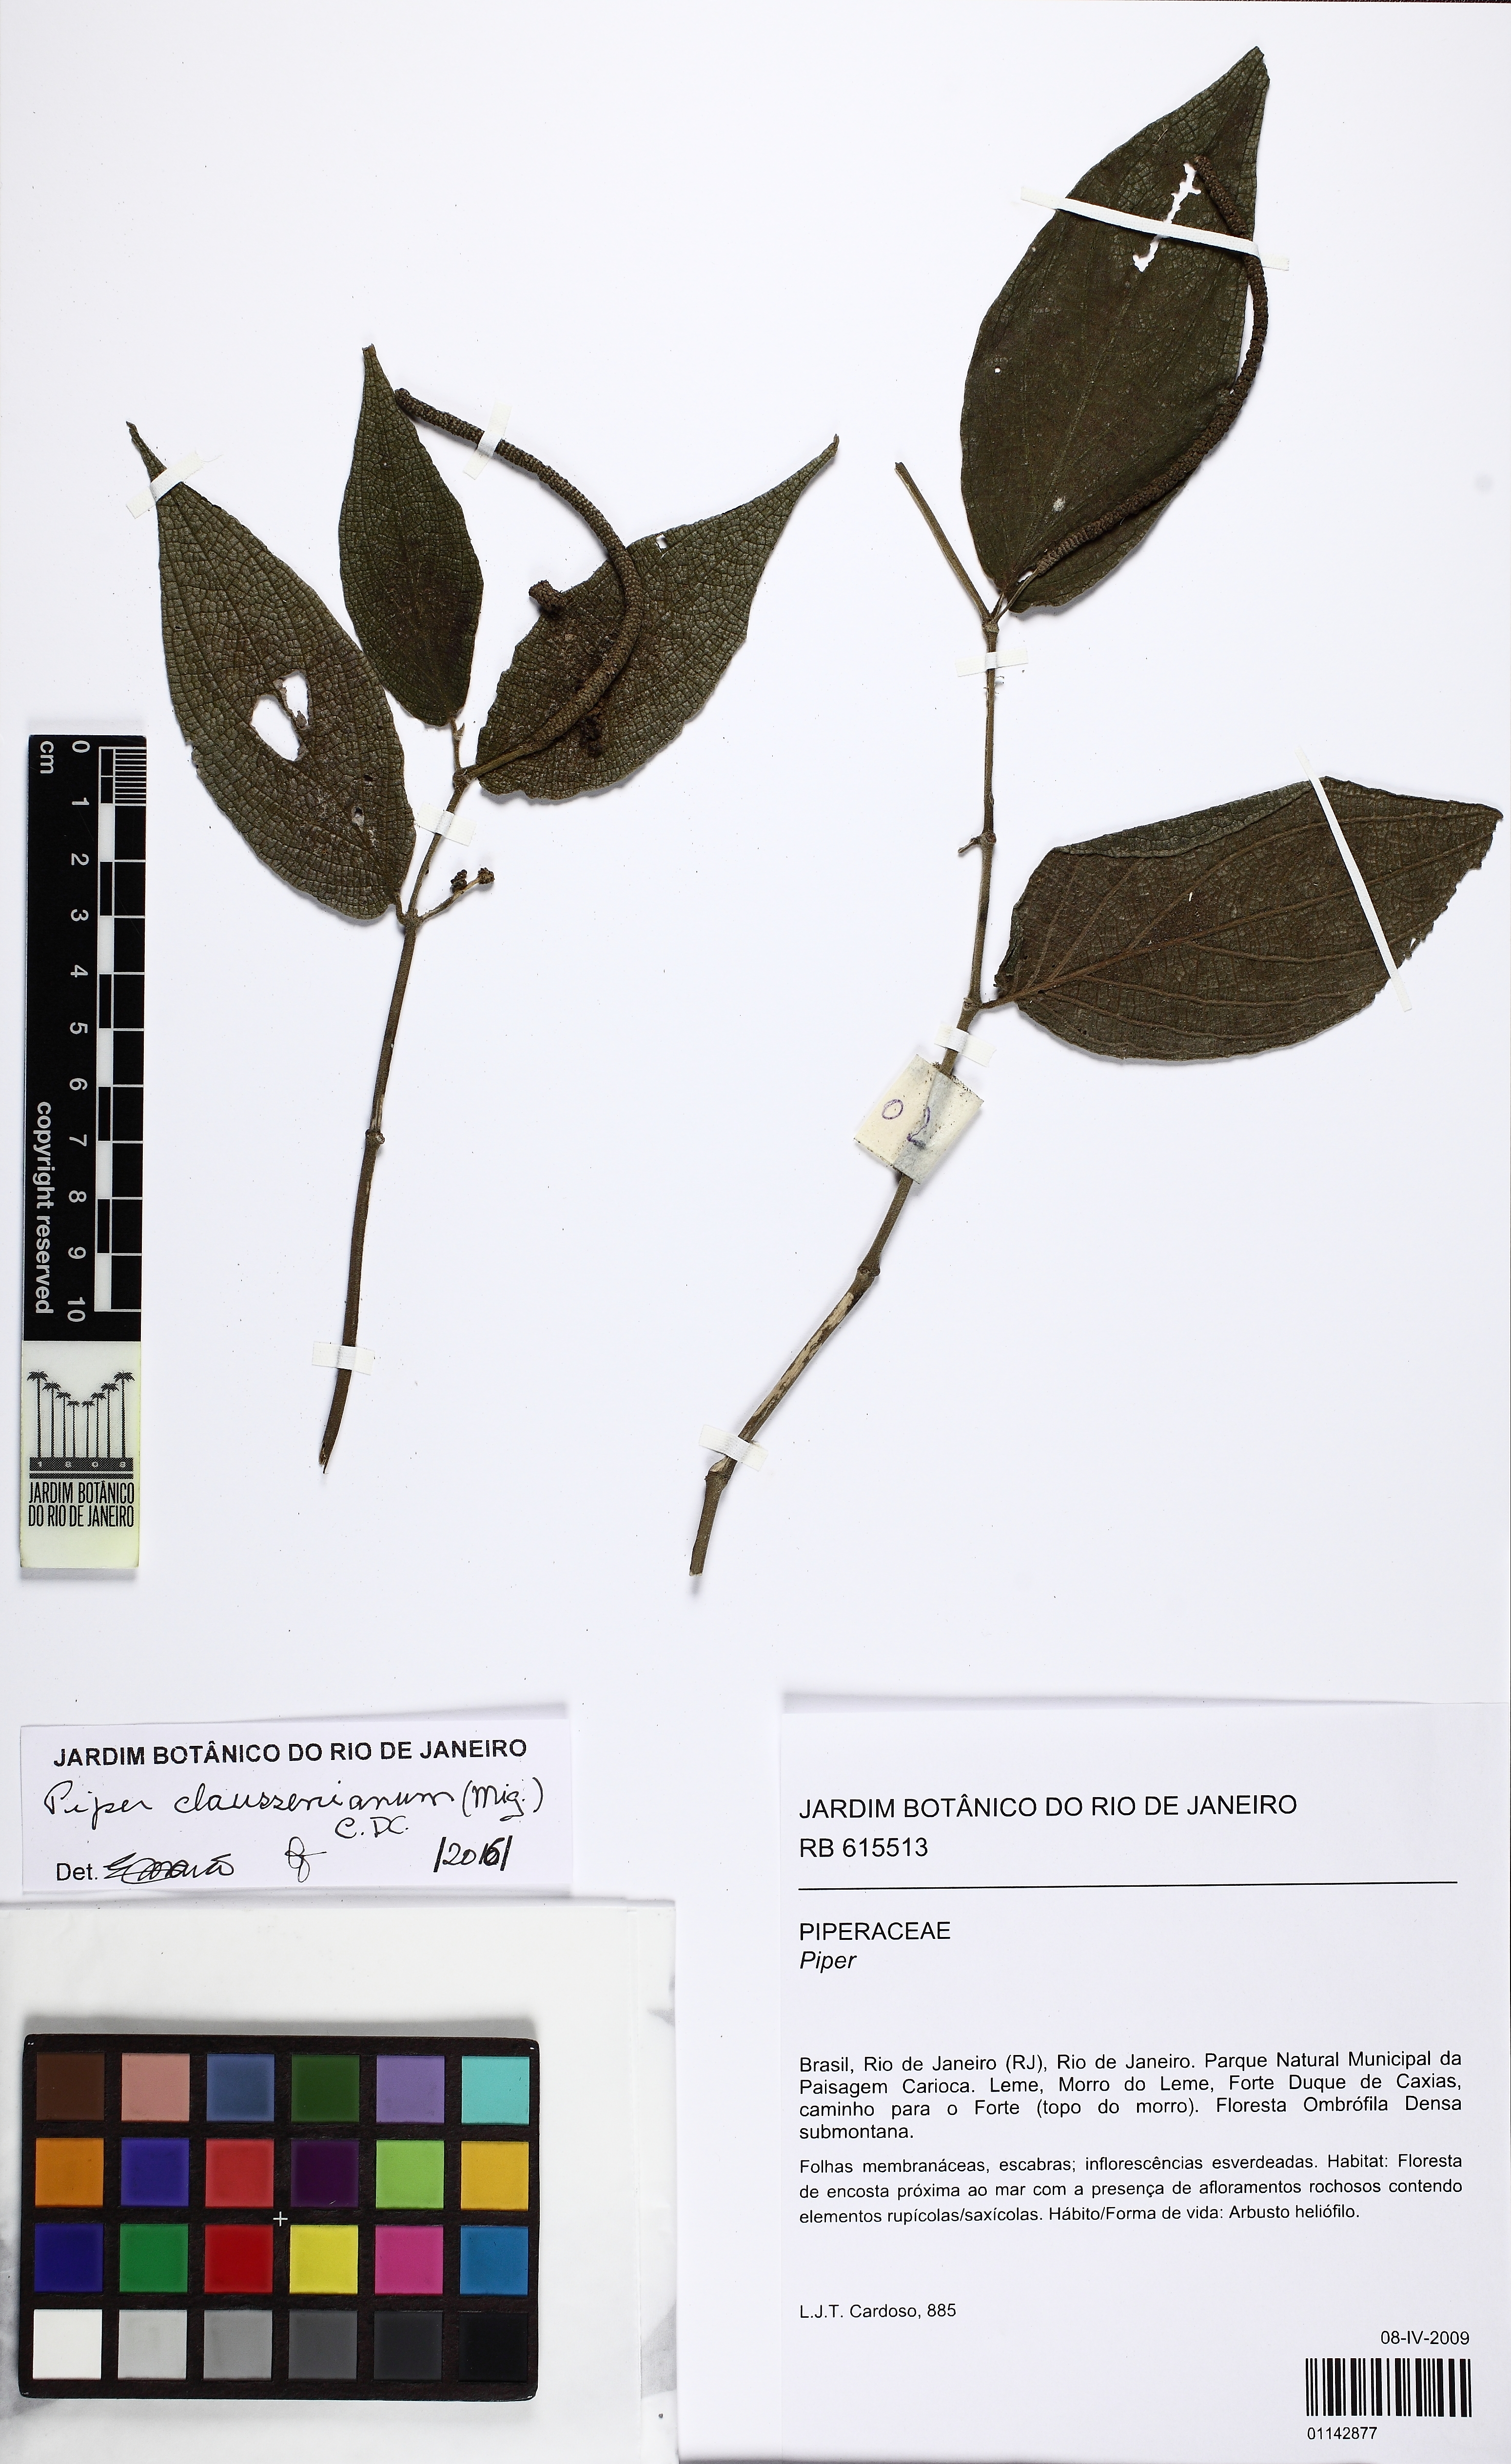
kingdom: Plantae
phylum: Tracheophyta
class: Magnoliopsida
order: Piperales
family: Piperaceae
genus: Piper
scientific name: Piper claussenianum
